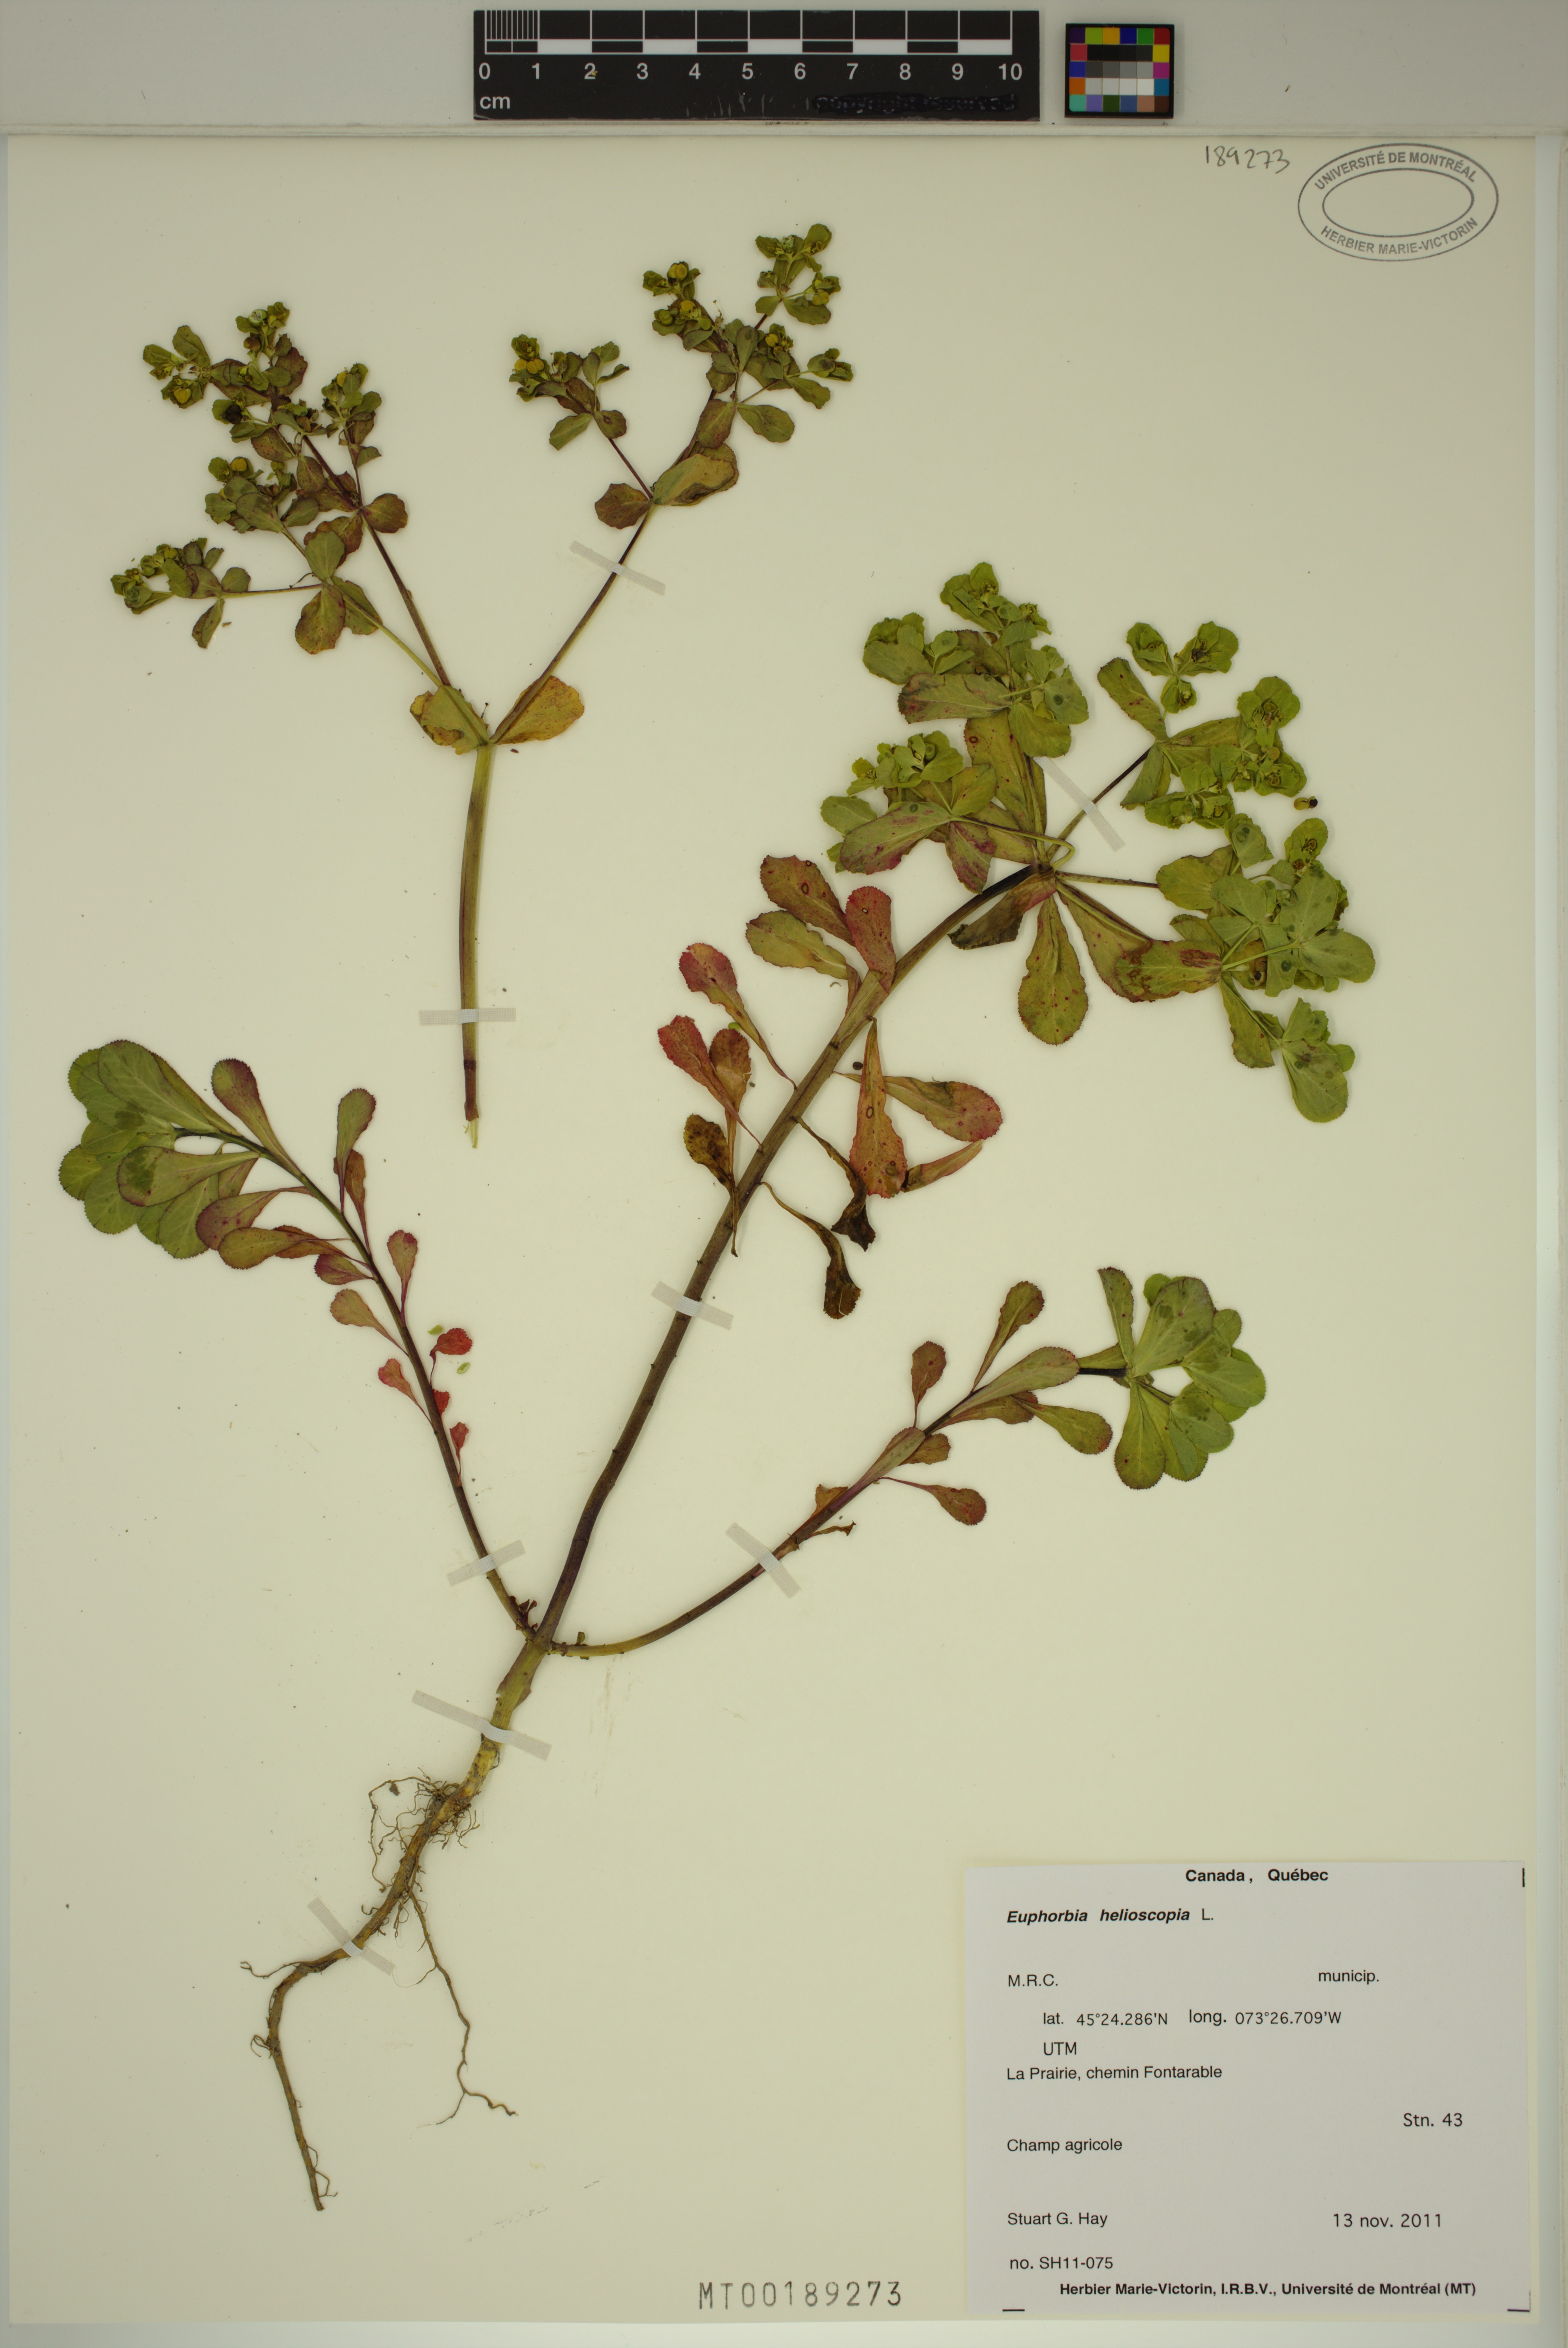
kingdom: Plantae
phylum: Tracheophyta
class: Magnoliopsida
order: Malpighiales
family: Euphorbiaceae
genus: Euphorbia
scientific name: Euphorbia helioscopia
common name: Sun spurge
